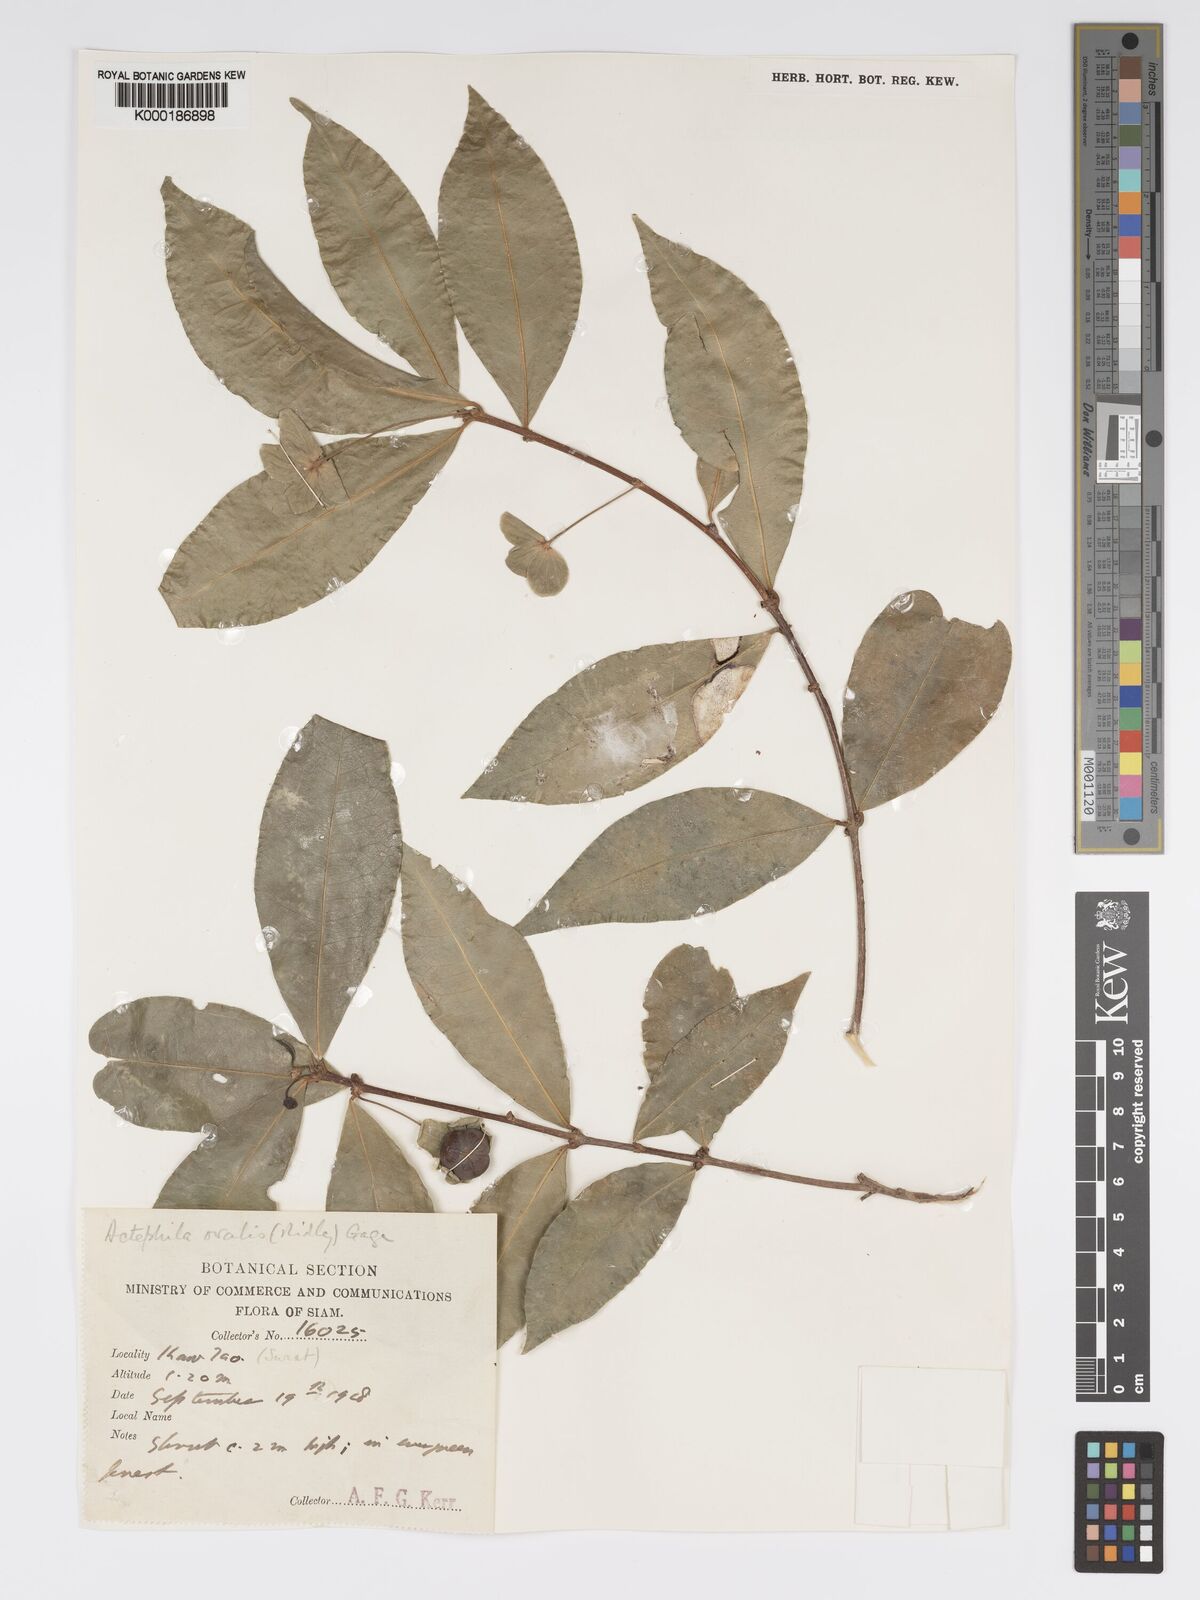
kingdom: Plantae
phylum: Tracheophyta
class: Magnoliopsida
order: Malpighiales
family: Phyllanthaceae
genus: Actephila
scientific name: Actephila ovalis
